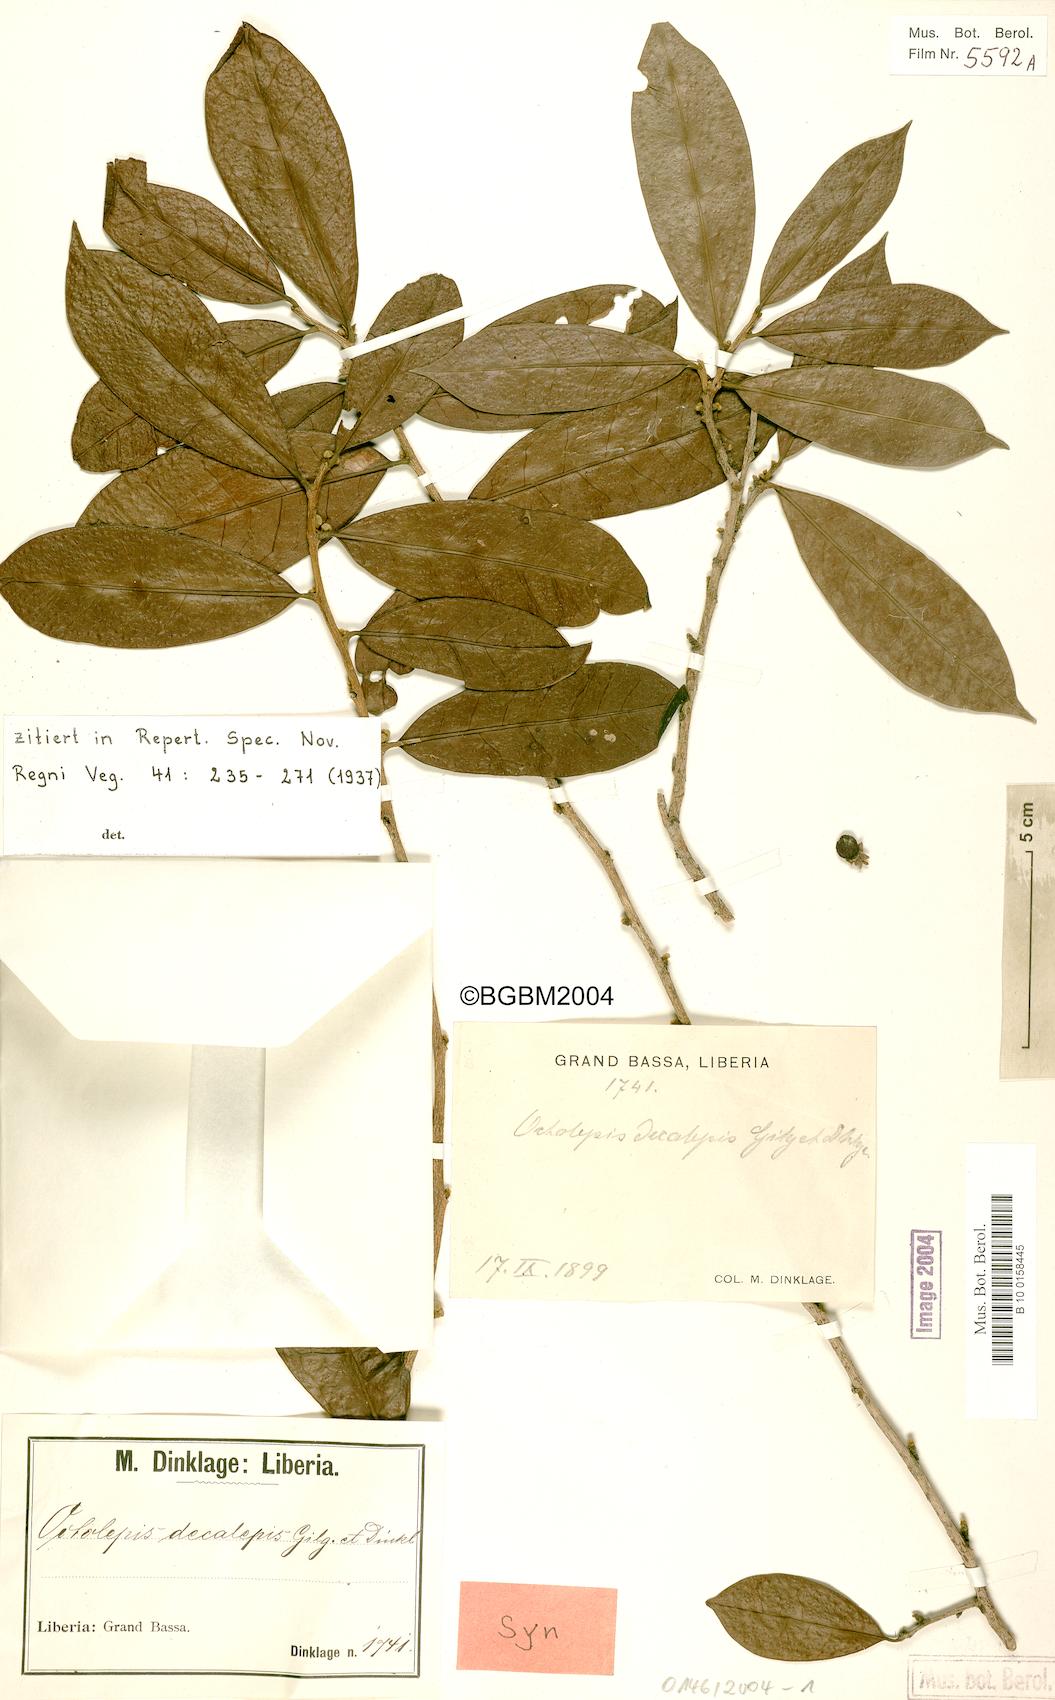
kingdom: Plantae
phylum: Tracheophyta
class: Magnoliopsida
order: Malvales
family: Thymelaeaceae
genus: Octolepis
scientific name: Octolepis decalepis
